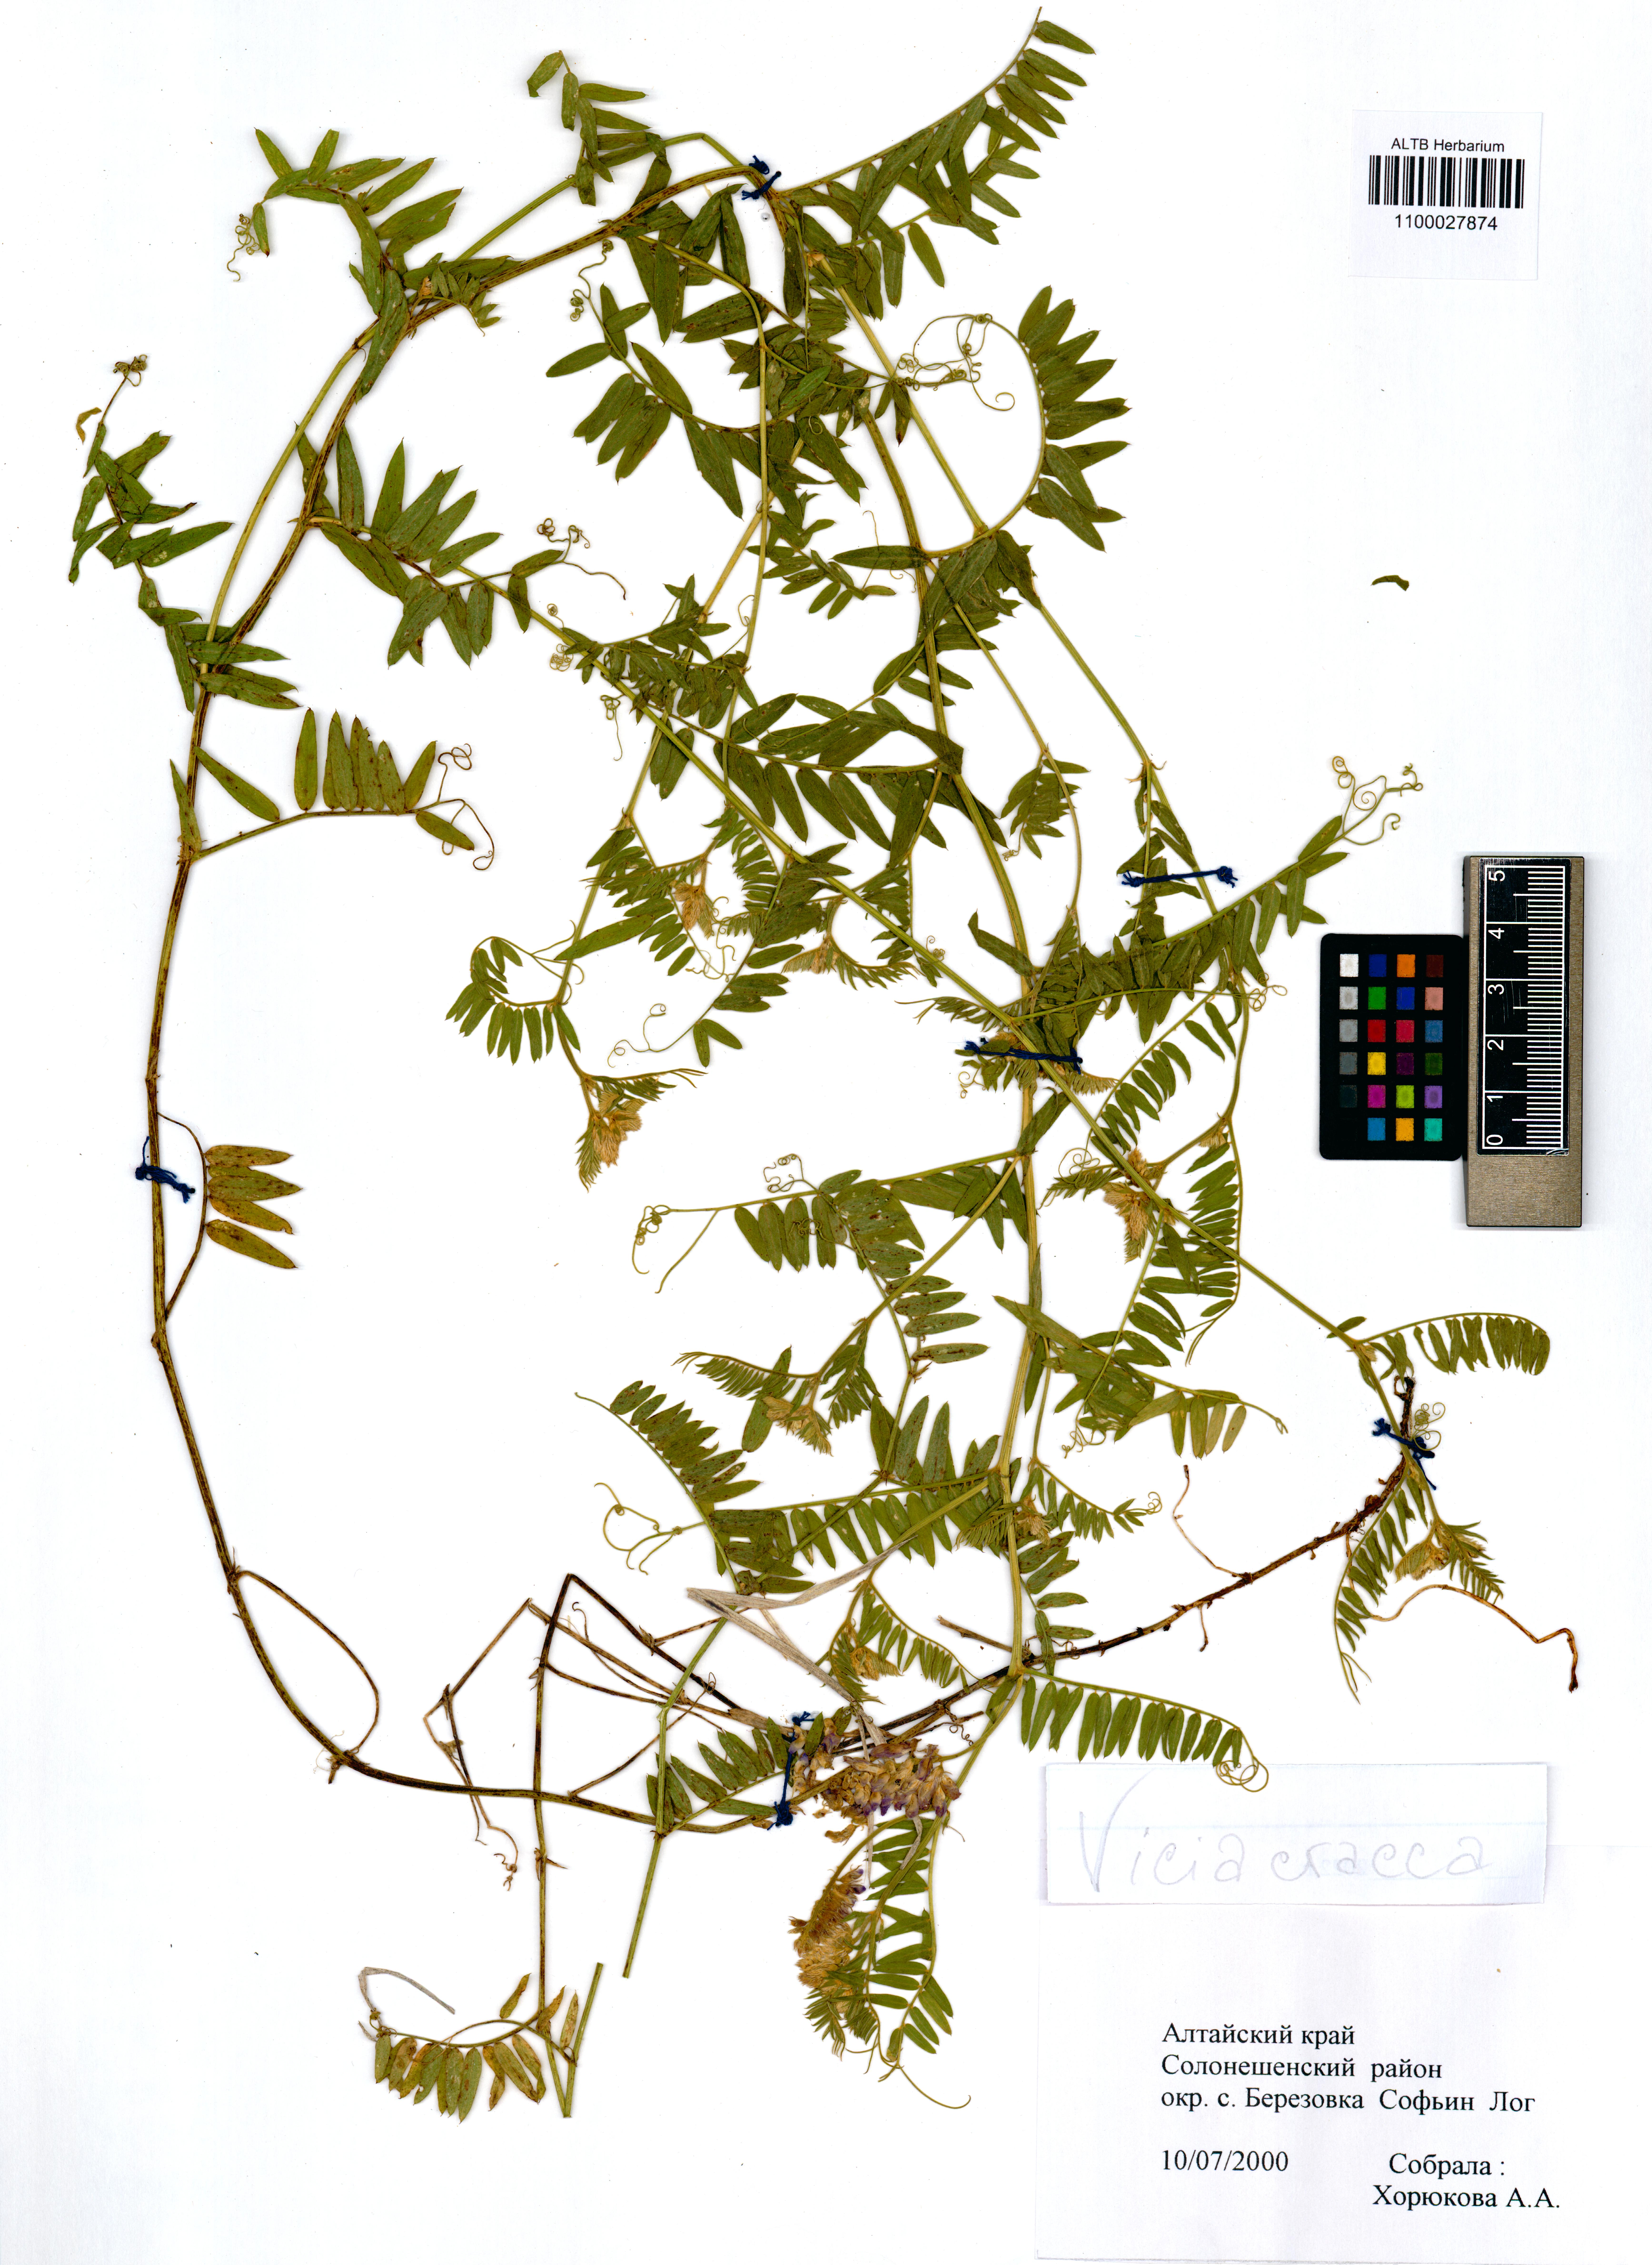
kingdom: Plantae
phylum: Tracheophyta
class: Magnoliopsida
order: Fabales
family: Fabaceae
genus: Vicia
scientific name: Vicia cracca
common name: Bird vetch
